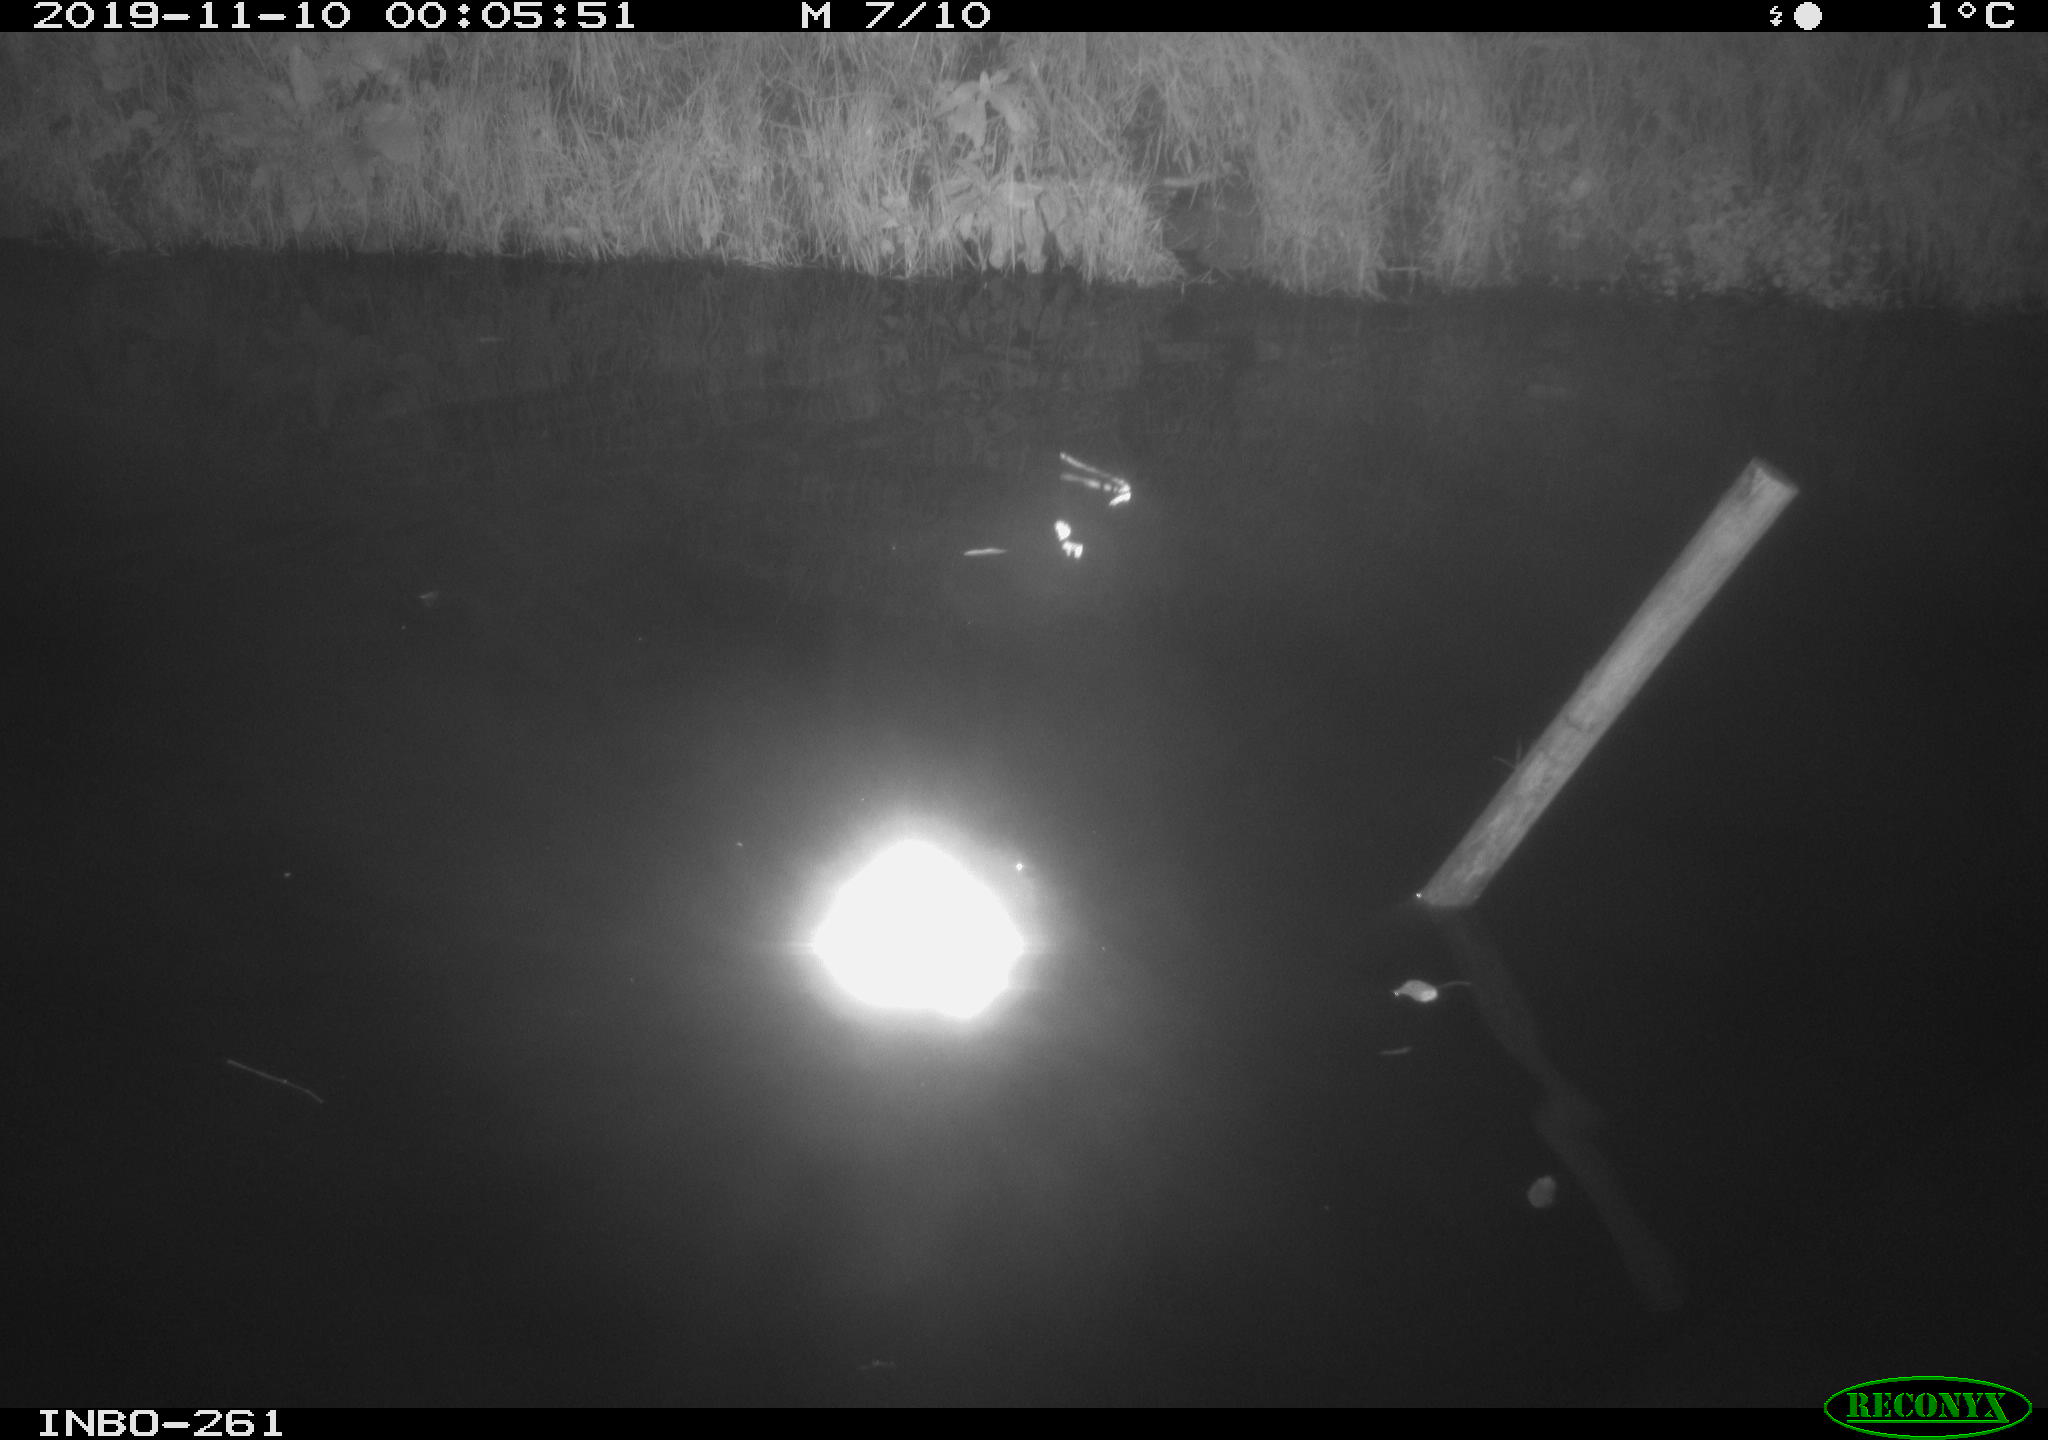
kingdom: Animalia
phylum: Chordata
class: Aves
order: Anseriformes
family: Anatidae
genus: Anas
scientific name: Anas platyrhynchos
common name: Mallard
